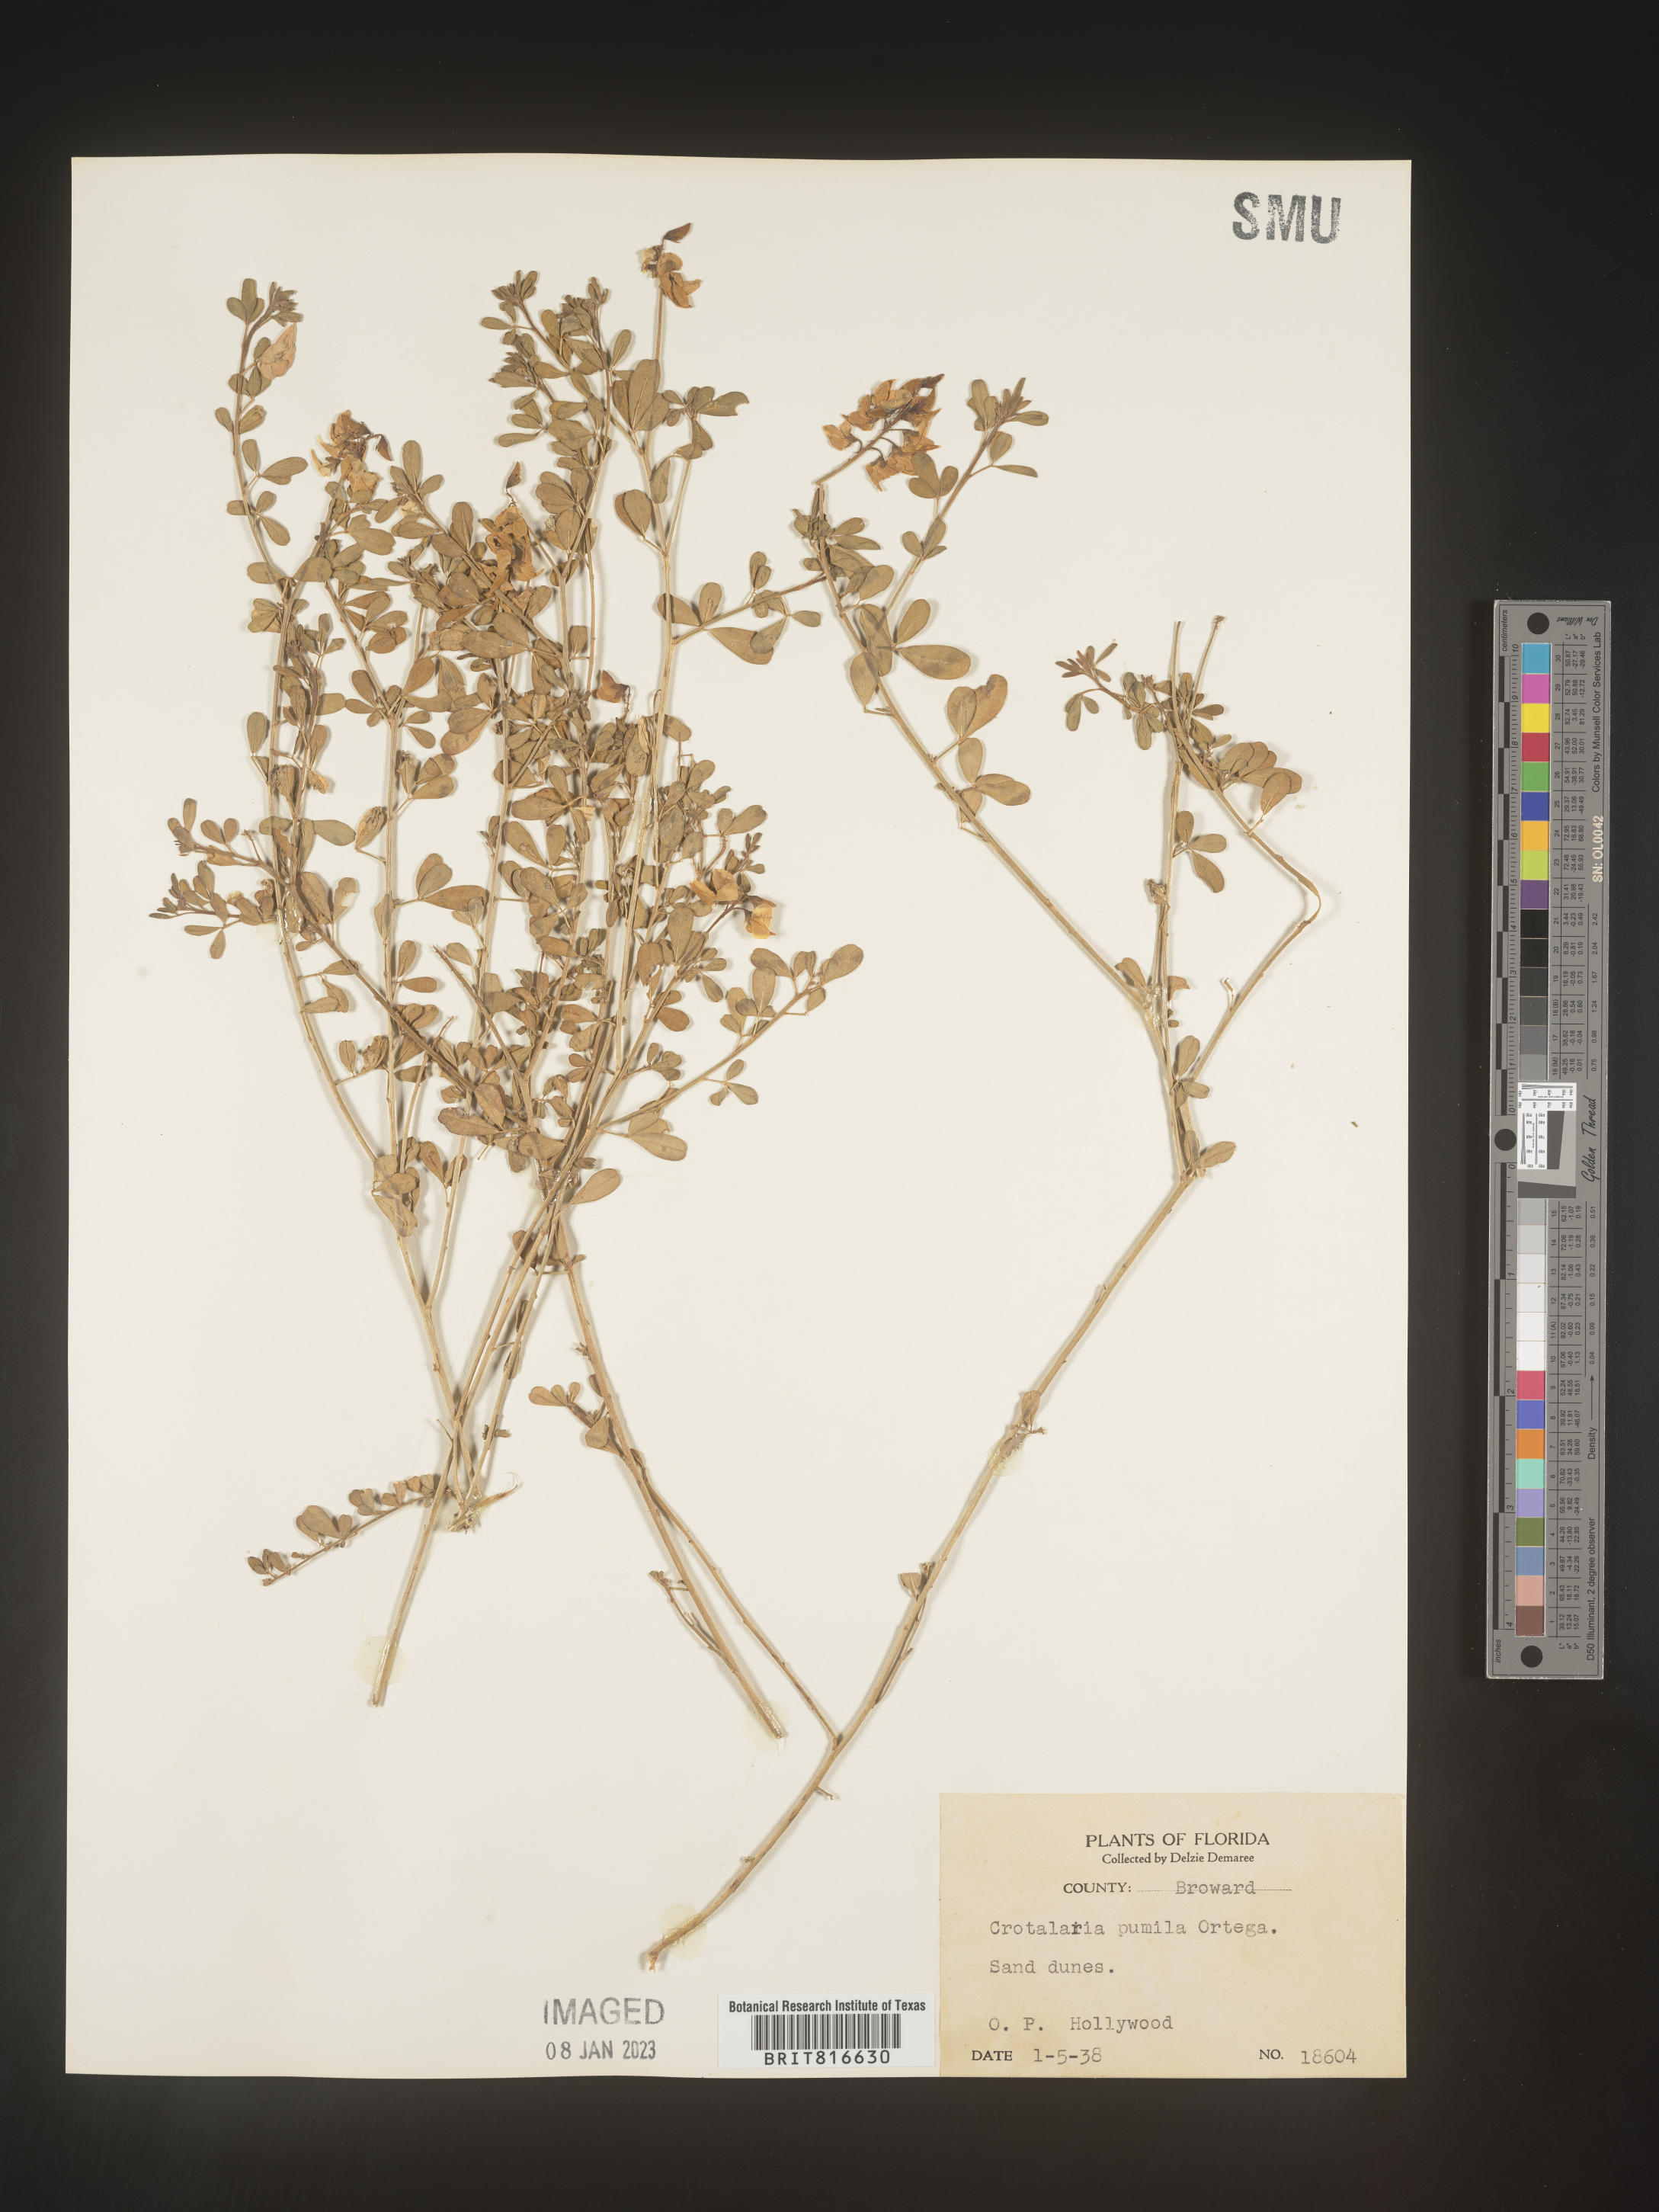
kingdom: Plantae
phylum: Tracheophyta
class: Magnoliopsida
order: Fabales
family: Fabaceae
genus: Crotalaria
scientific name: Crotalaria pumila
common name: Low rattlebox
